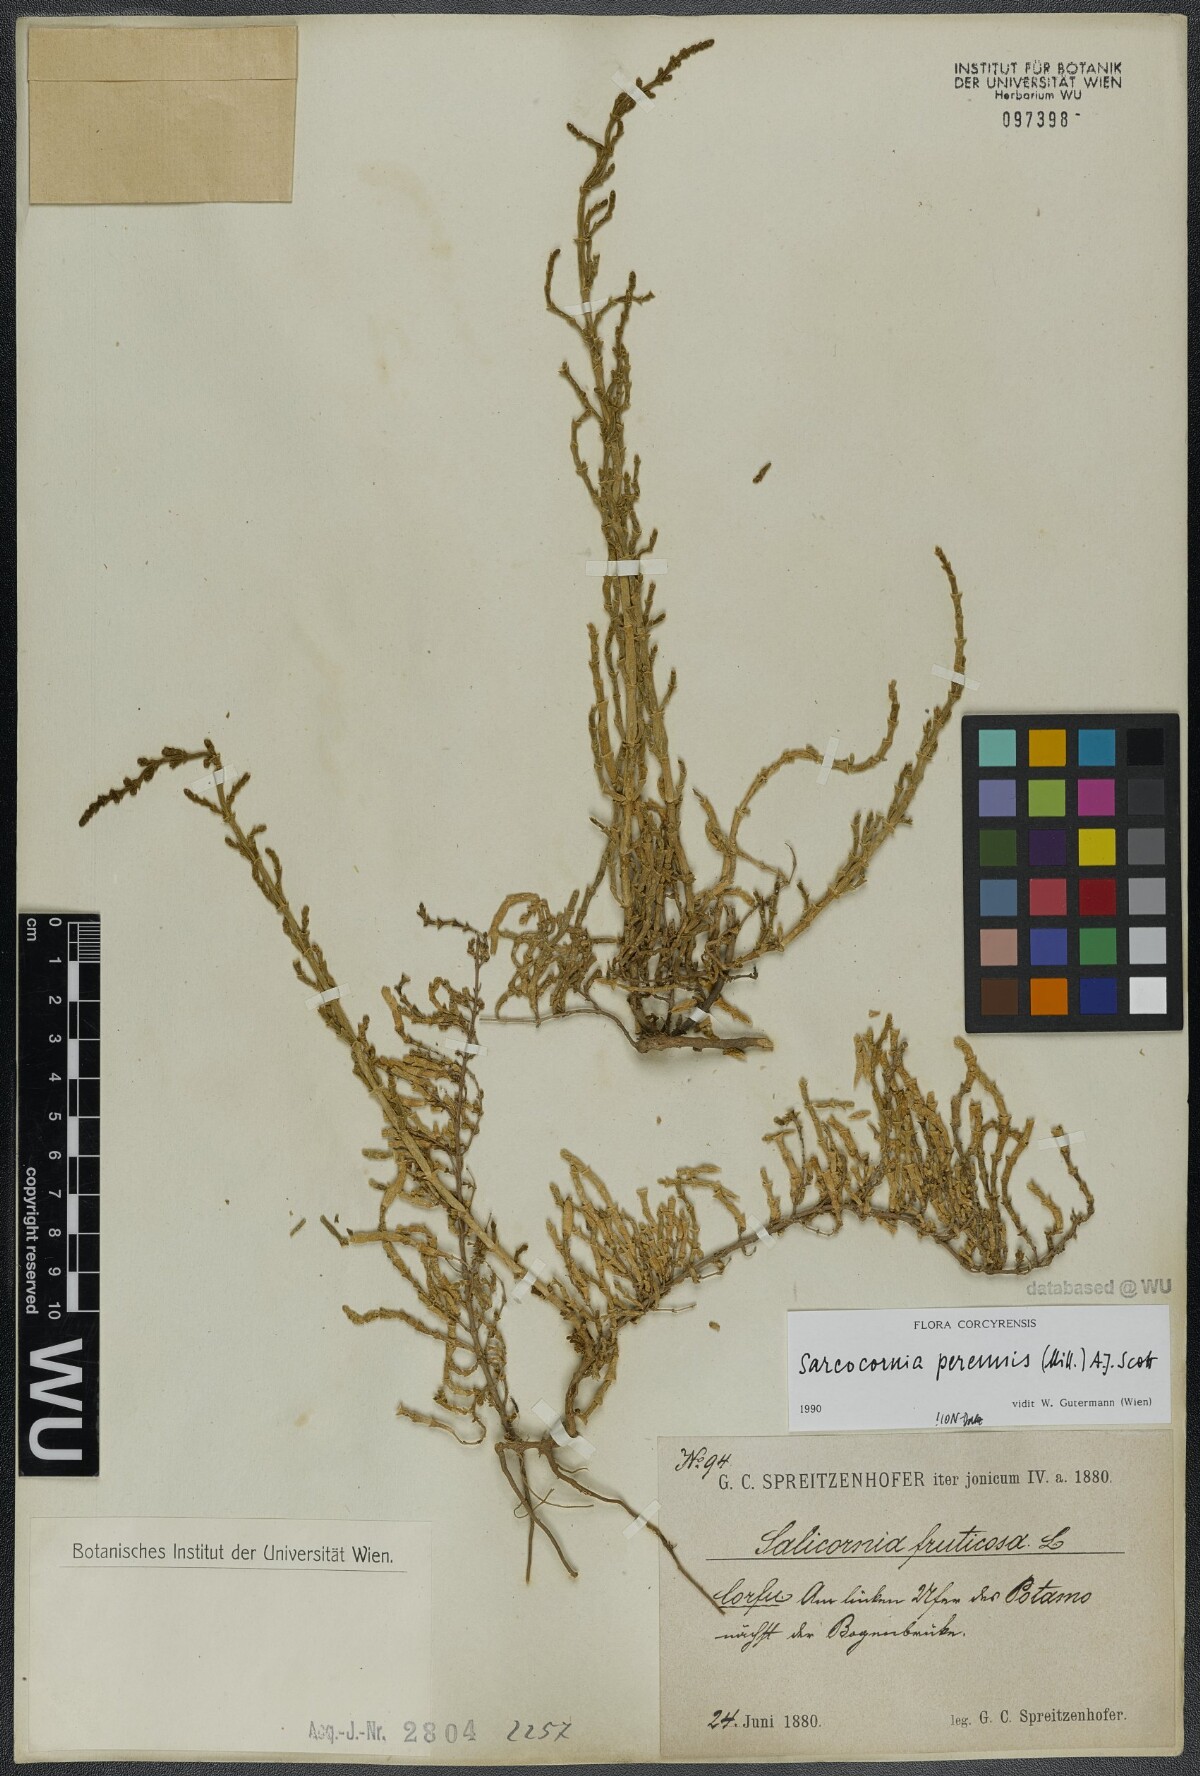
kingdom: Plantae
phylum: Tracheophyta
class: Magnoliopsida
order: Caryophyllales
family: Amaranthaceae
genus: Salicornia
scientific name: Salicornia perennis
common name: Chicken claws
